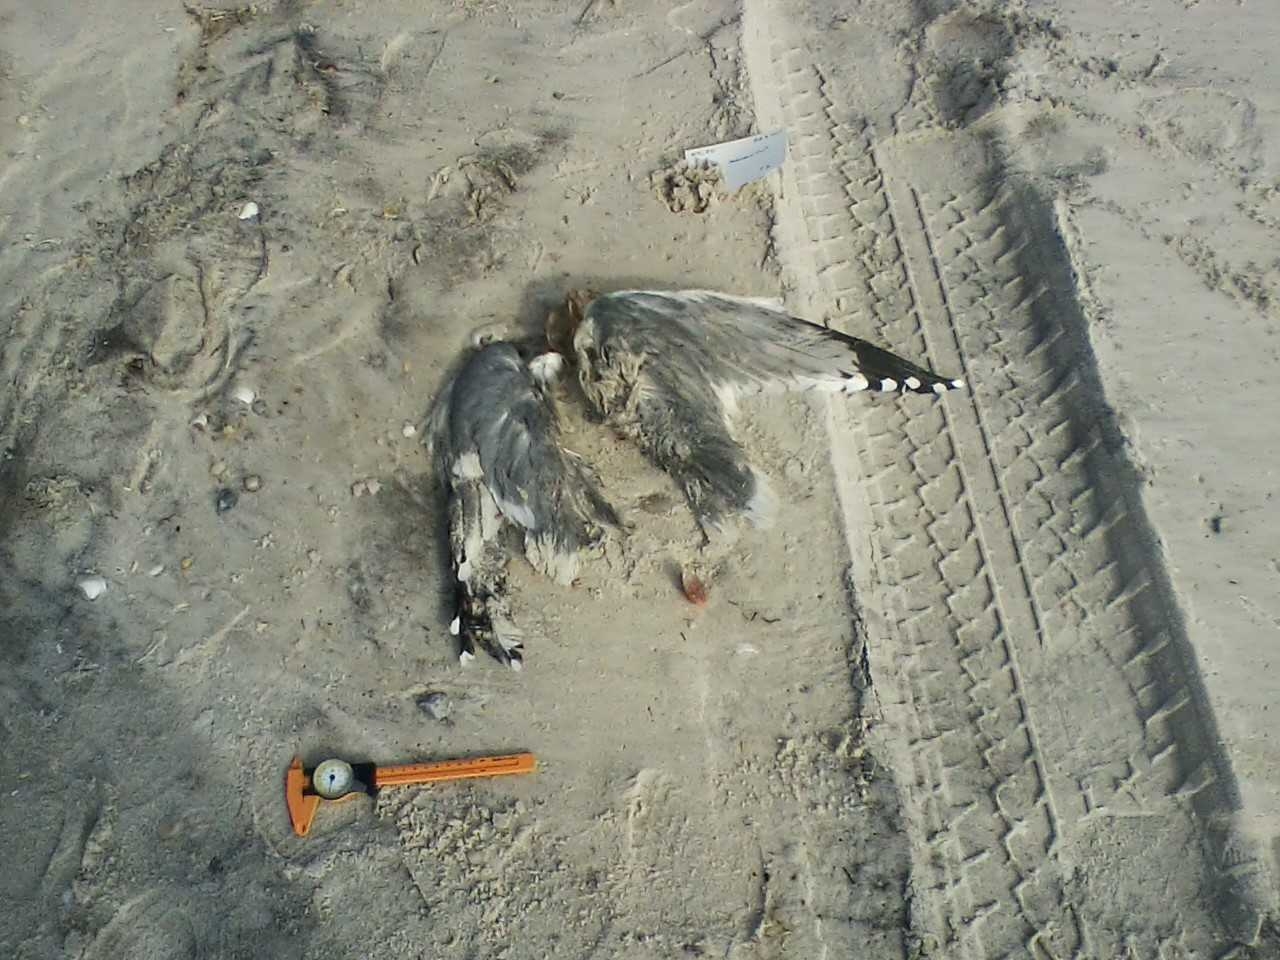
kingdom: Animalia
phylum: Chordata
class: Aves
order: Charadriiformes
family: Laridae
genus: Larus
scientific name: Larus smithsonianus
